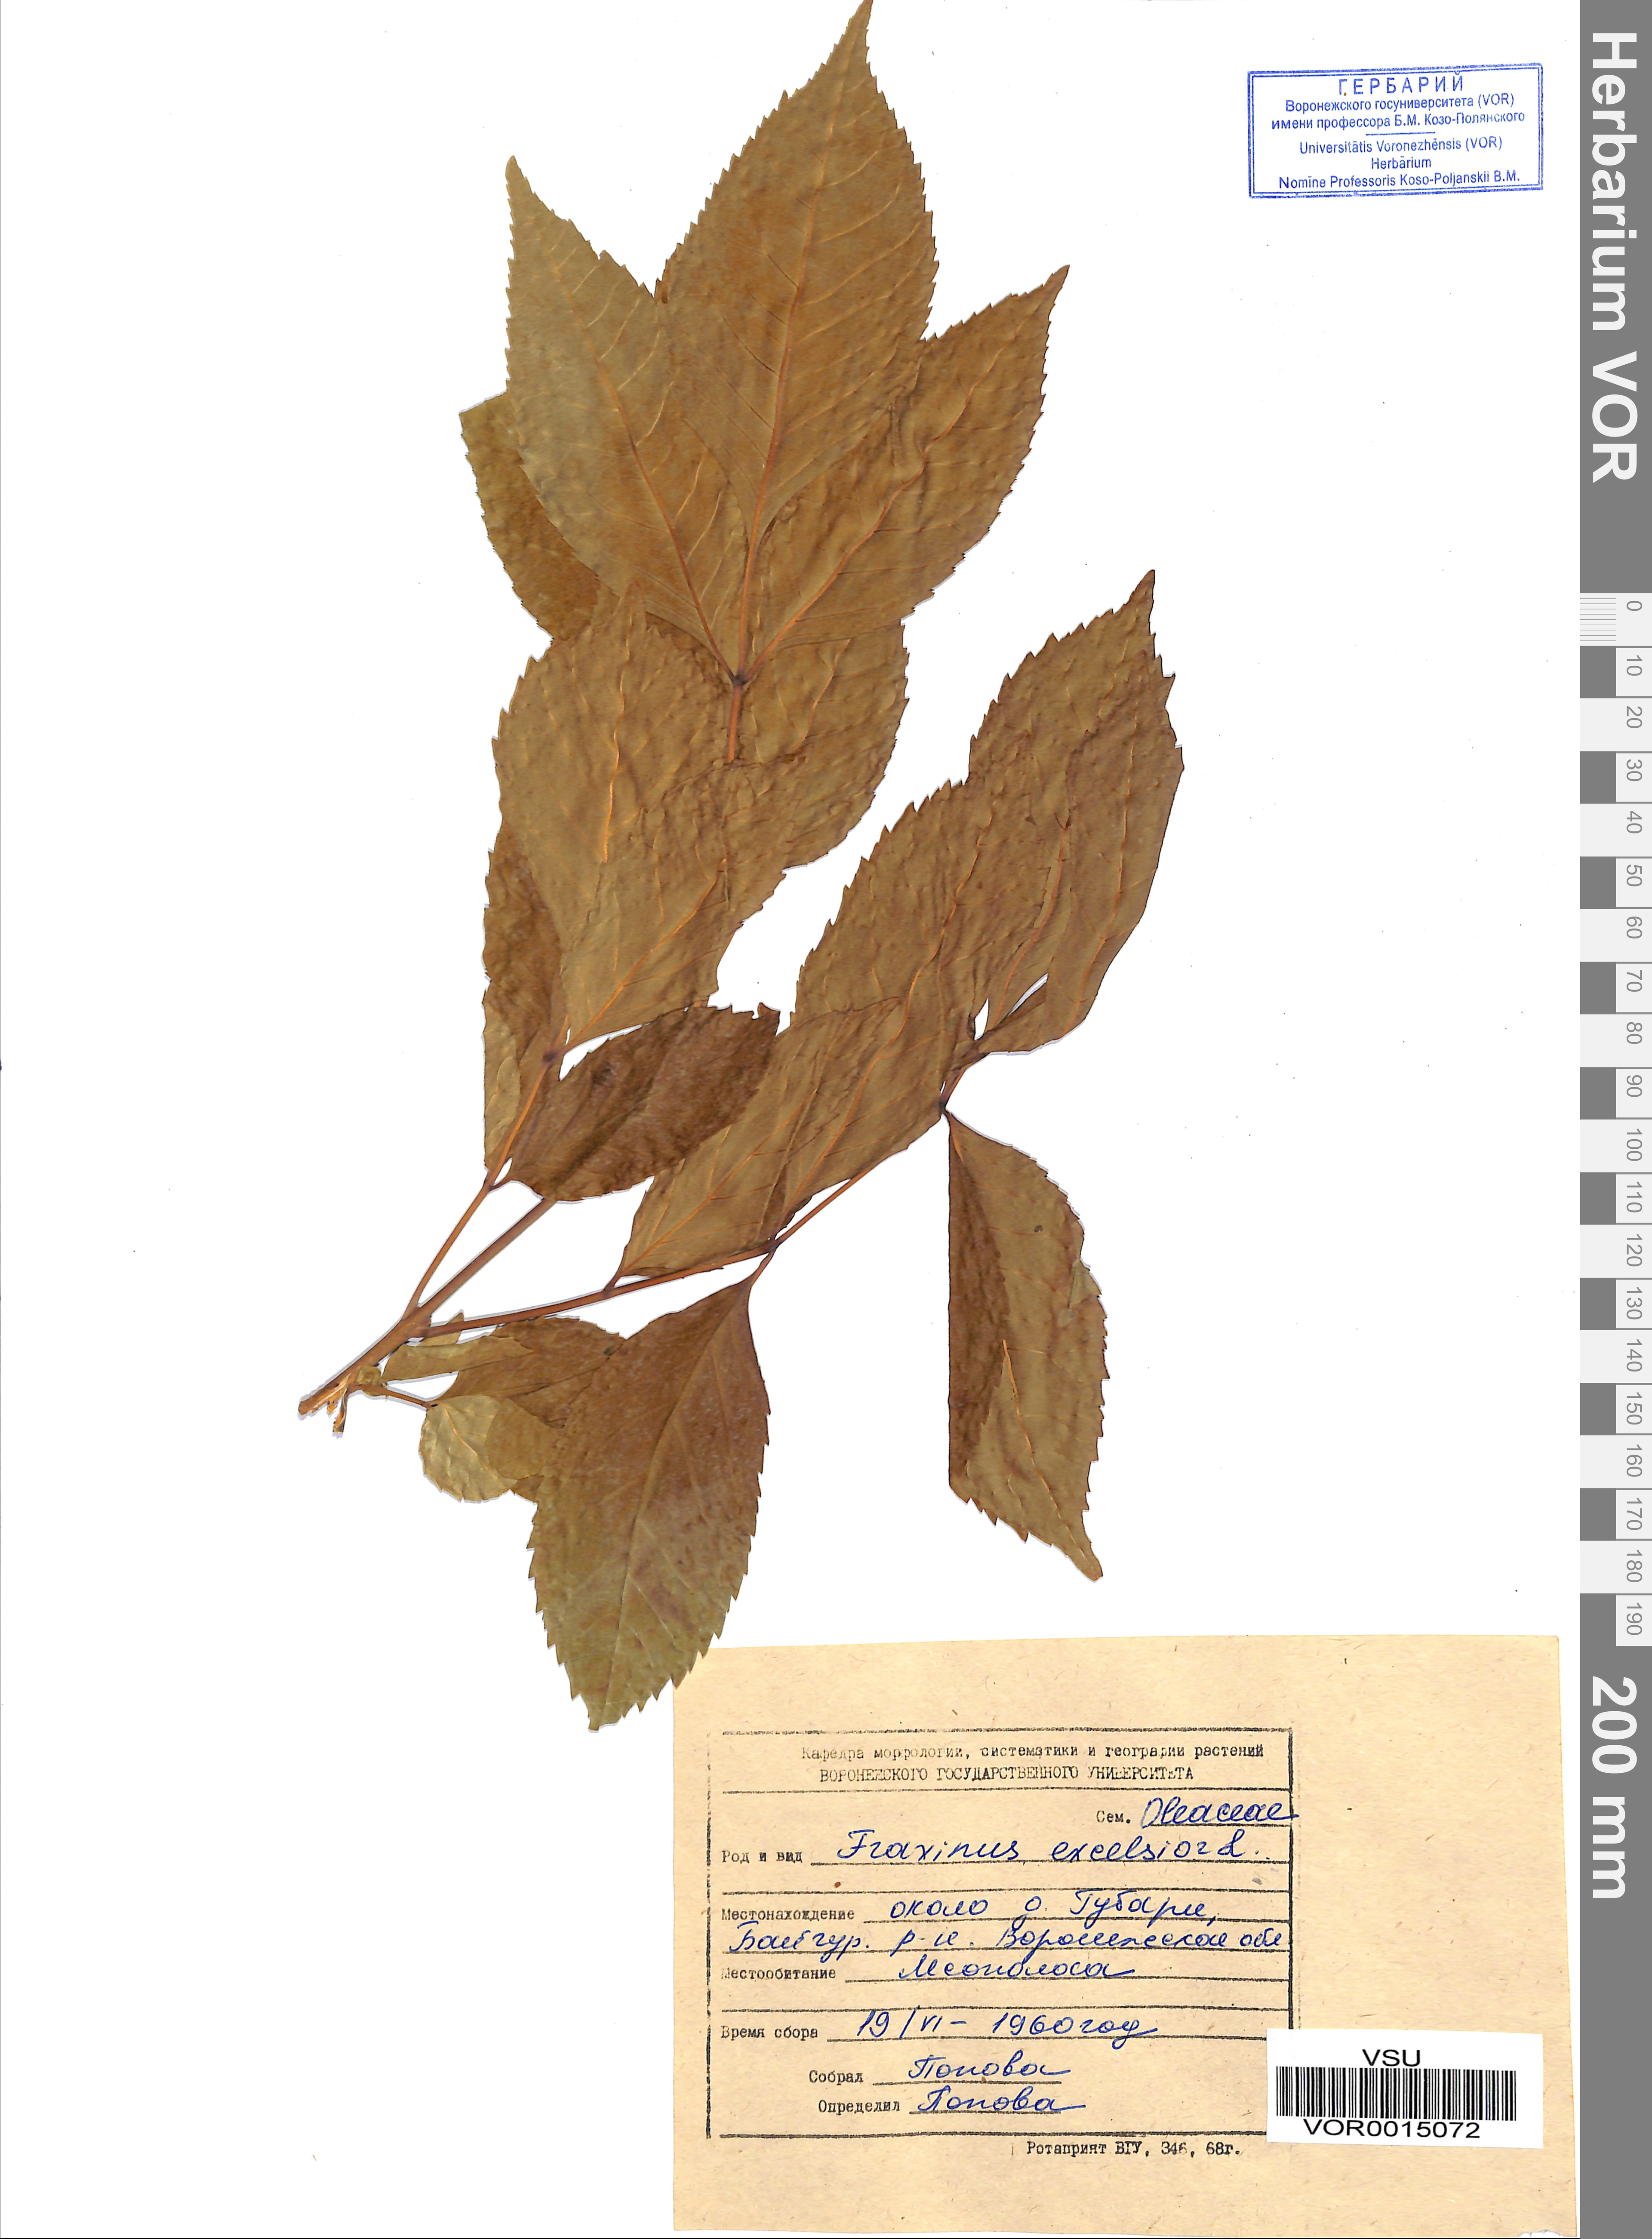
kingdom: Plantae
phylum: Tracheophyta
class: Magnoliopsida
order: Lamiales
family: Oleaceae
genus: Fraxinus
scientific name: Fraxinus excelsior
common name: European ash
